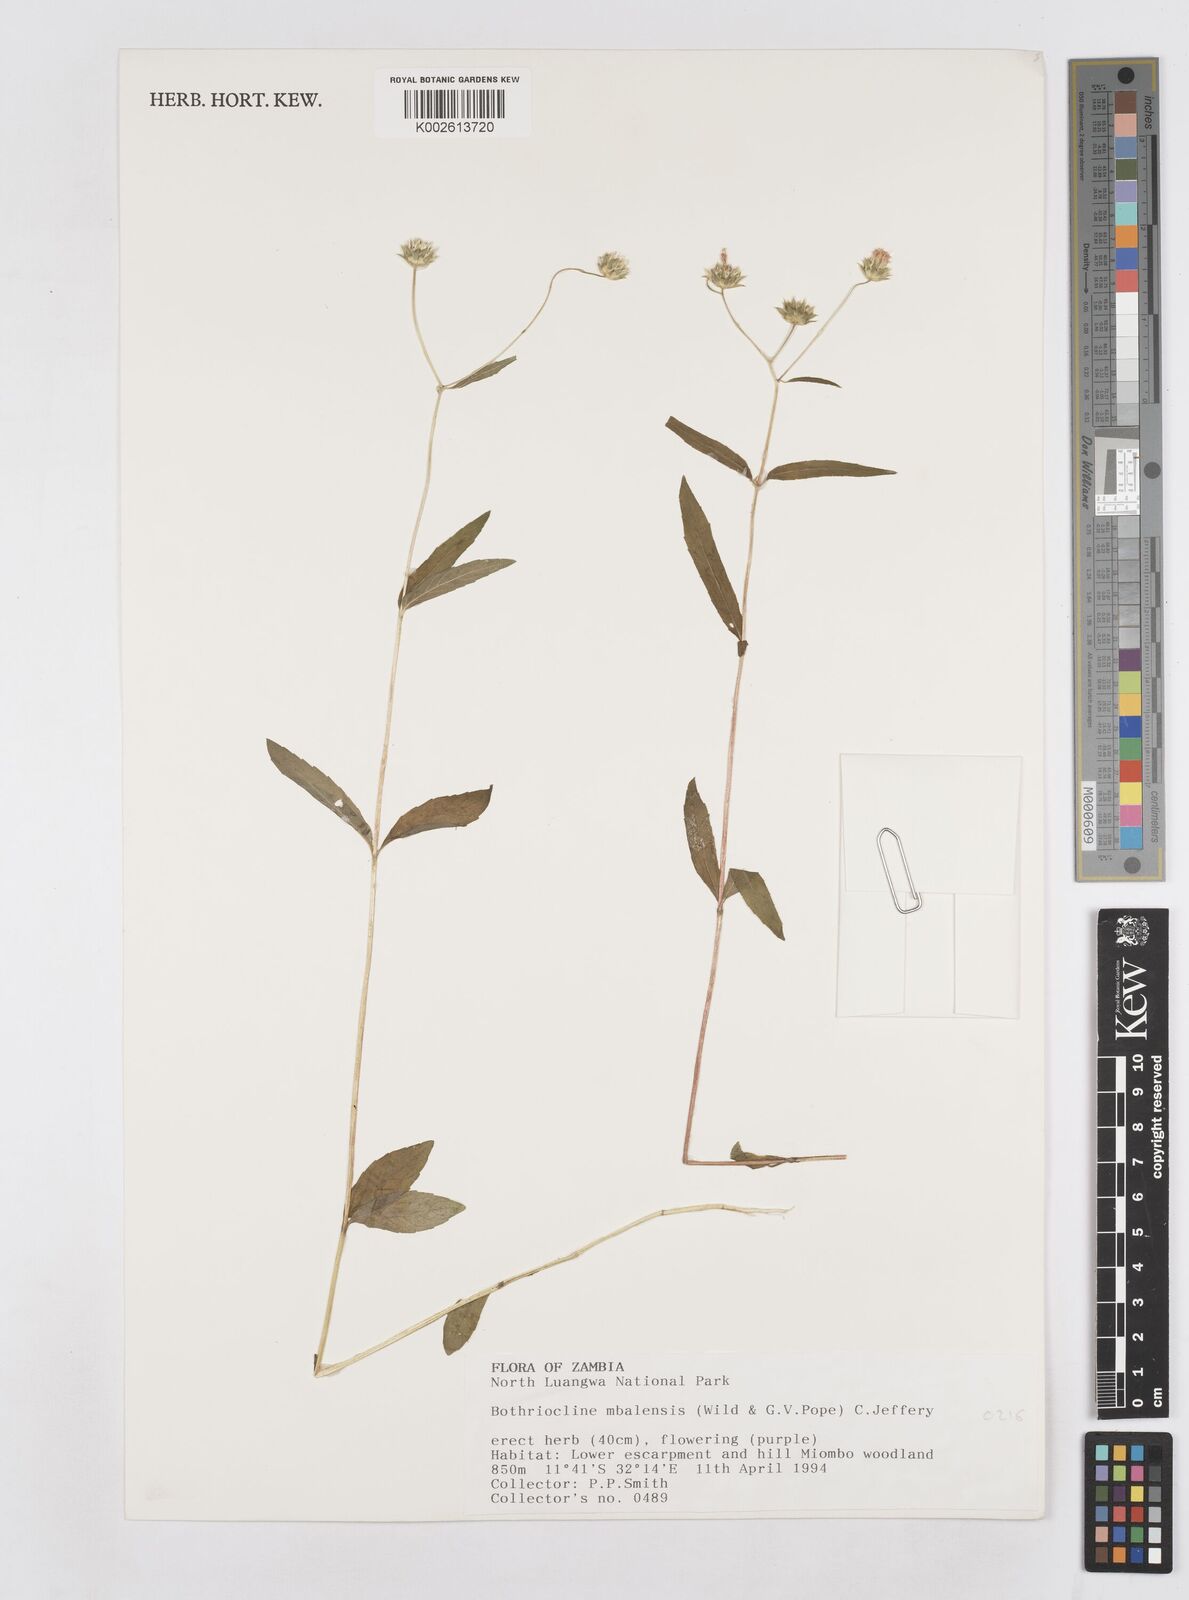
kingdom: Plantae
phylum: Tracheophyta
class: Magnoliopsida
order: Asterales
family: Asteraceae
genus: Bothriocline
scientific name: Bothriocline mbalensis
